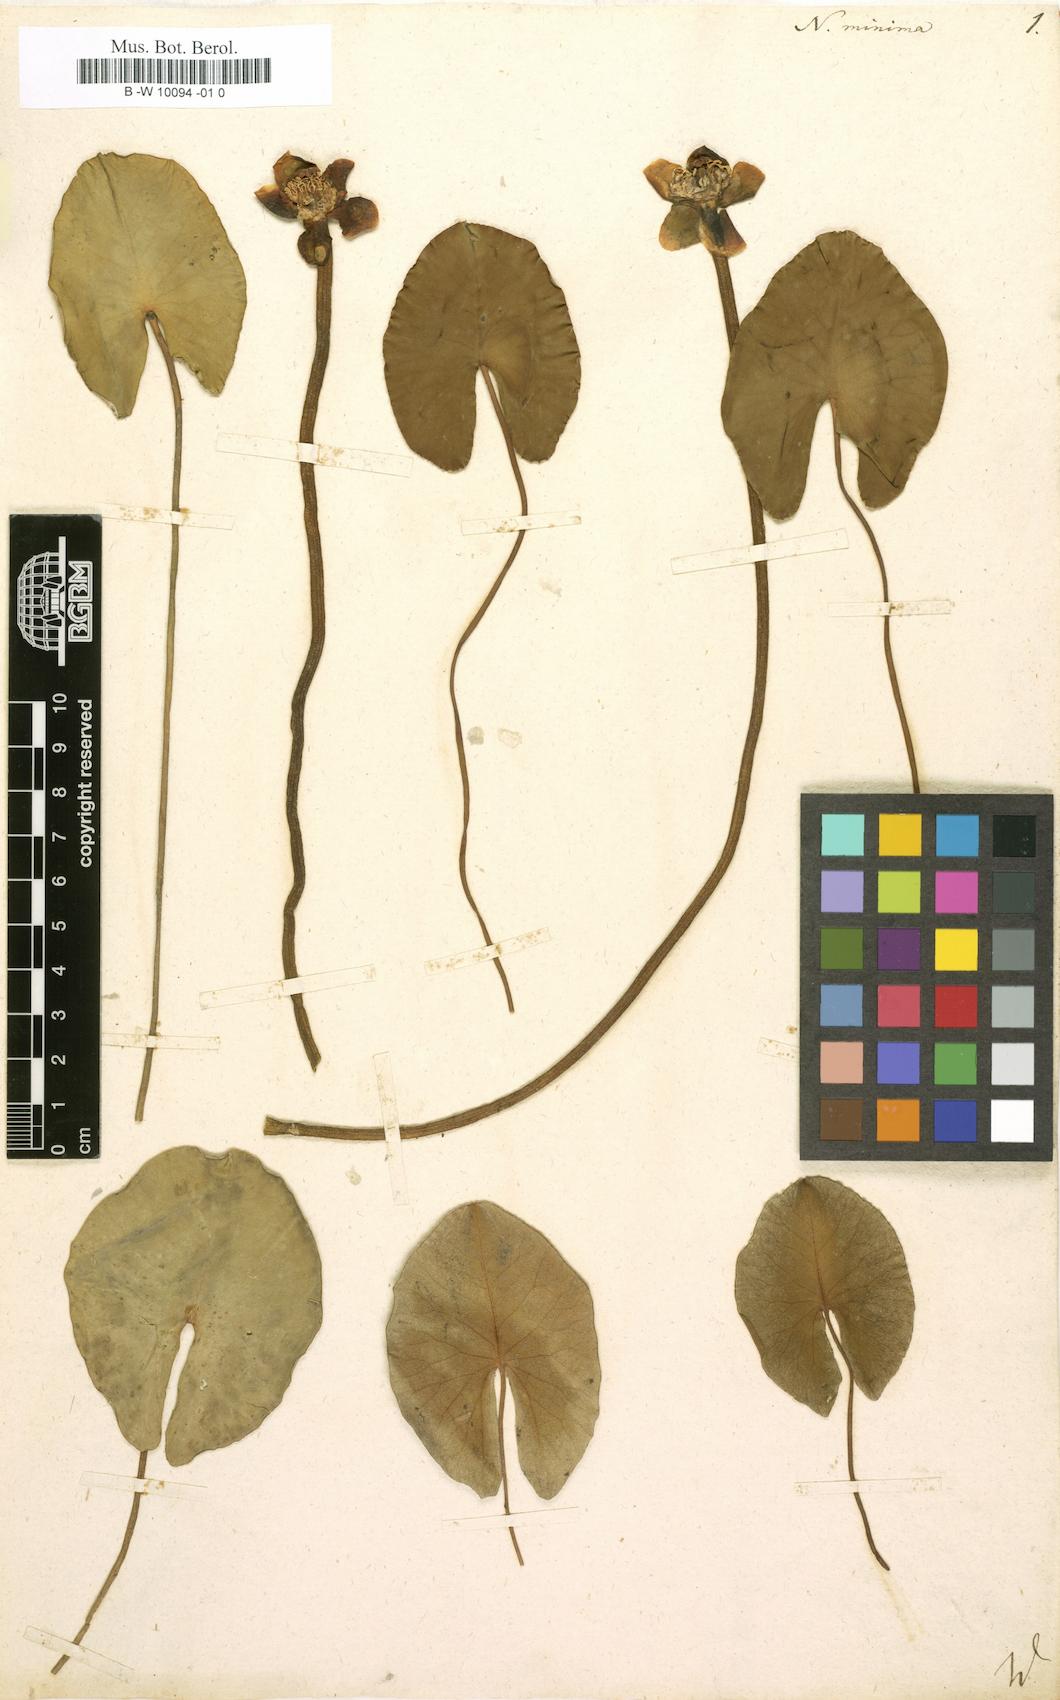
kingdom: Plantae
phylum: Tracheophyta
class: Magnoliopsida
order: Nymphaeales
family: Nymphaeaceae
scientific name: Nymphaeaceae
